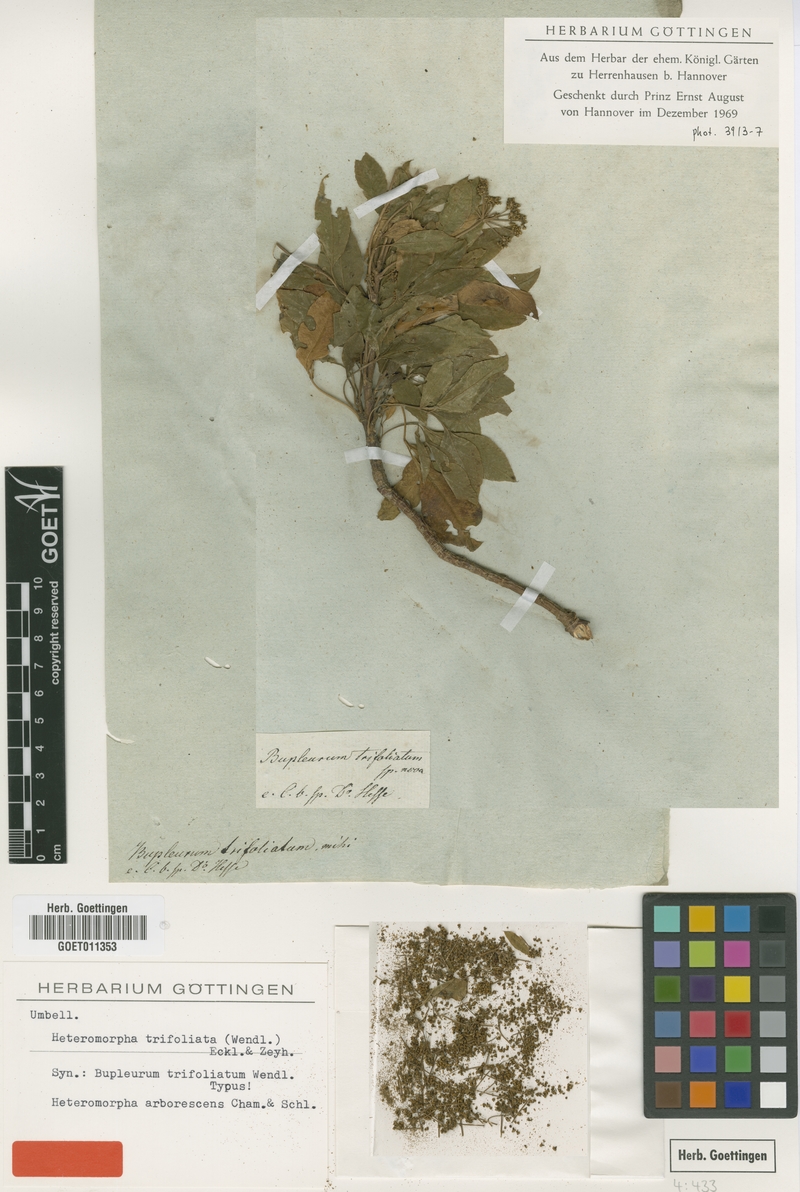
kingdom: Plantae
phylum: Tracheophyta
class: Magnoliopsida
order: Apiales
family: Apiaceae
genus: Heteromorpha
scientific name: Heteromorpha arborescens
